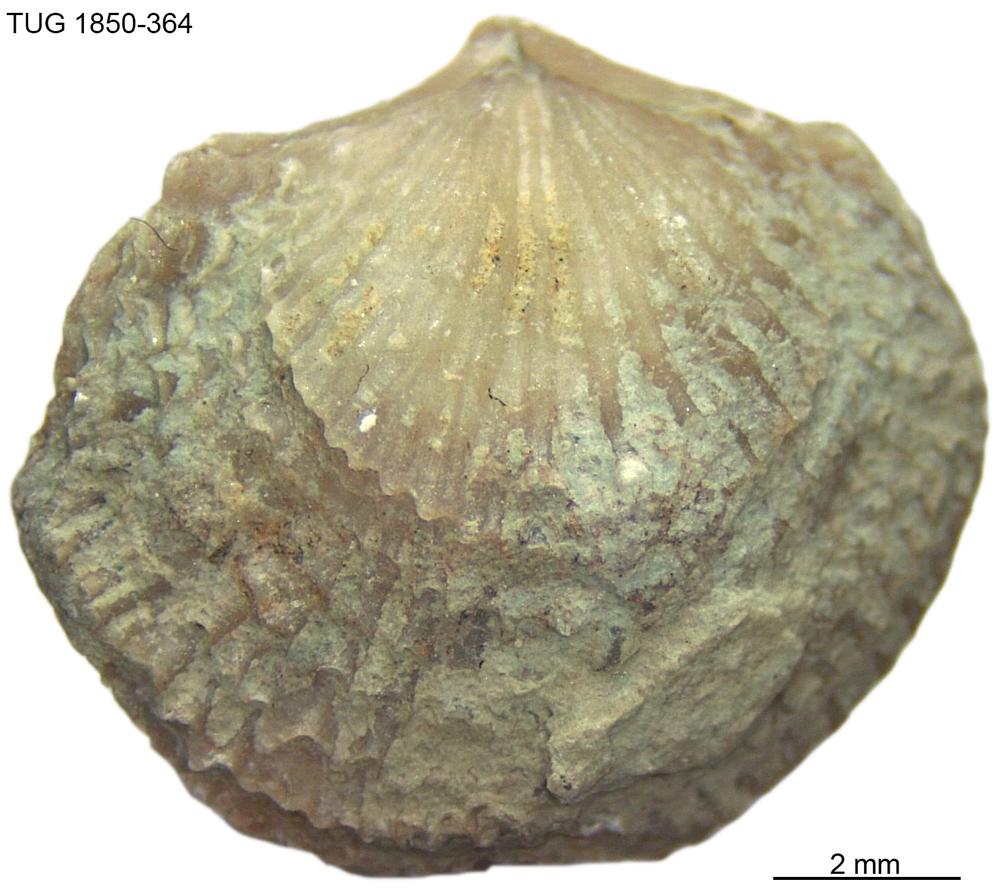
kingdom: Animalia
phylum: Brachiopoda
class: Rhynchonellata
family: Atrypidae
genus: Atrypa
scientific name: Atrypa
